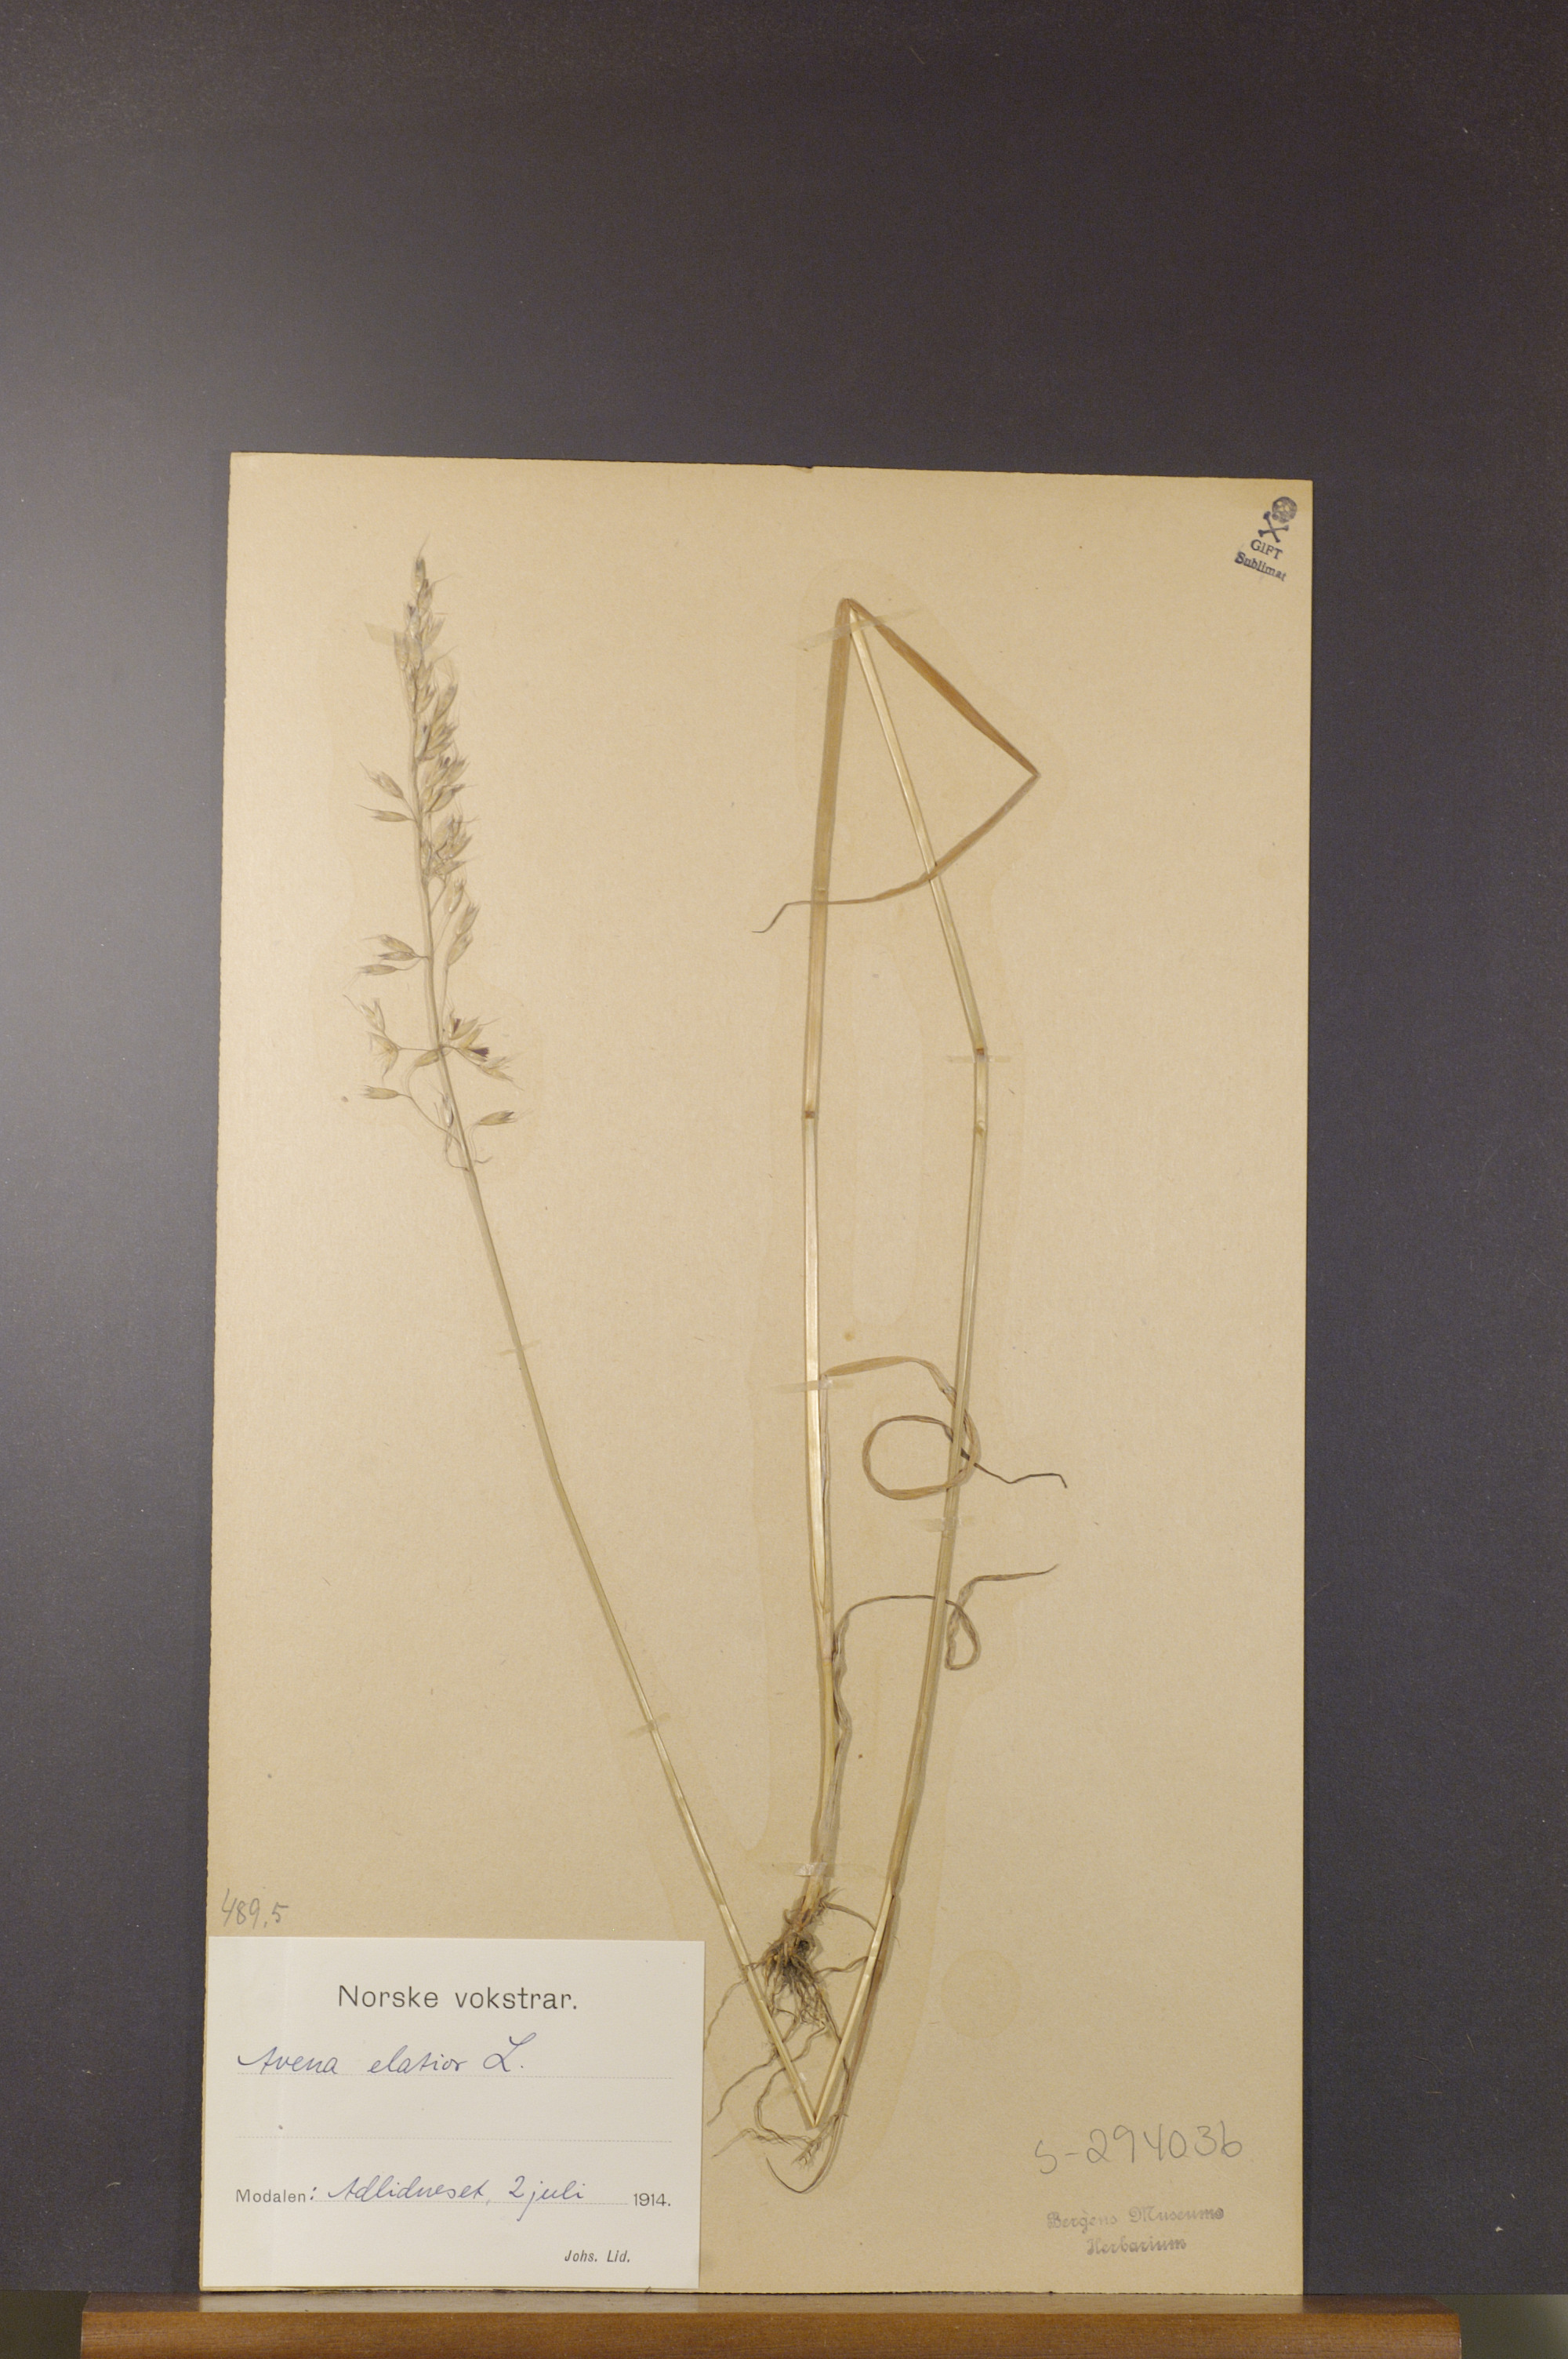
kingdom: Plantae
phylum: Tracheophyta
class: Liliopsida
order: Poales
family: Poaceae
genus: Arrhenatherum
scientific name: Arrhenatherum elatius
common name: Tall oatgrass
